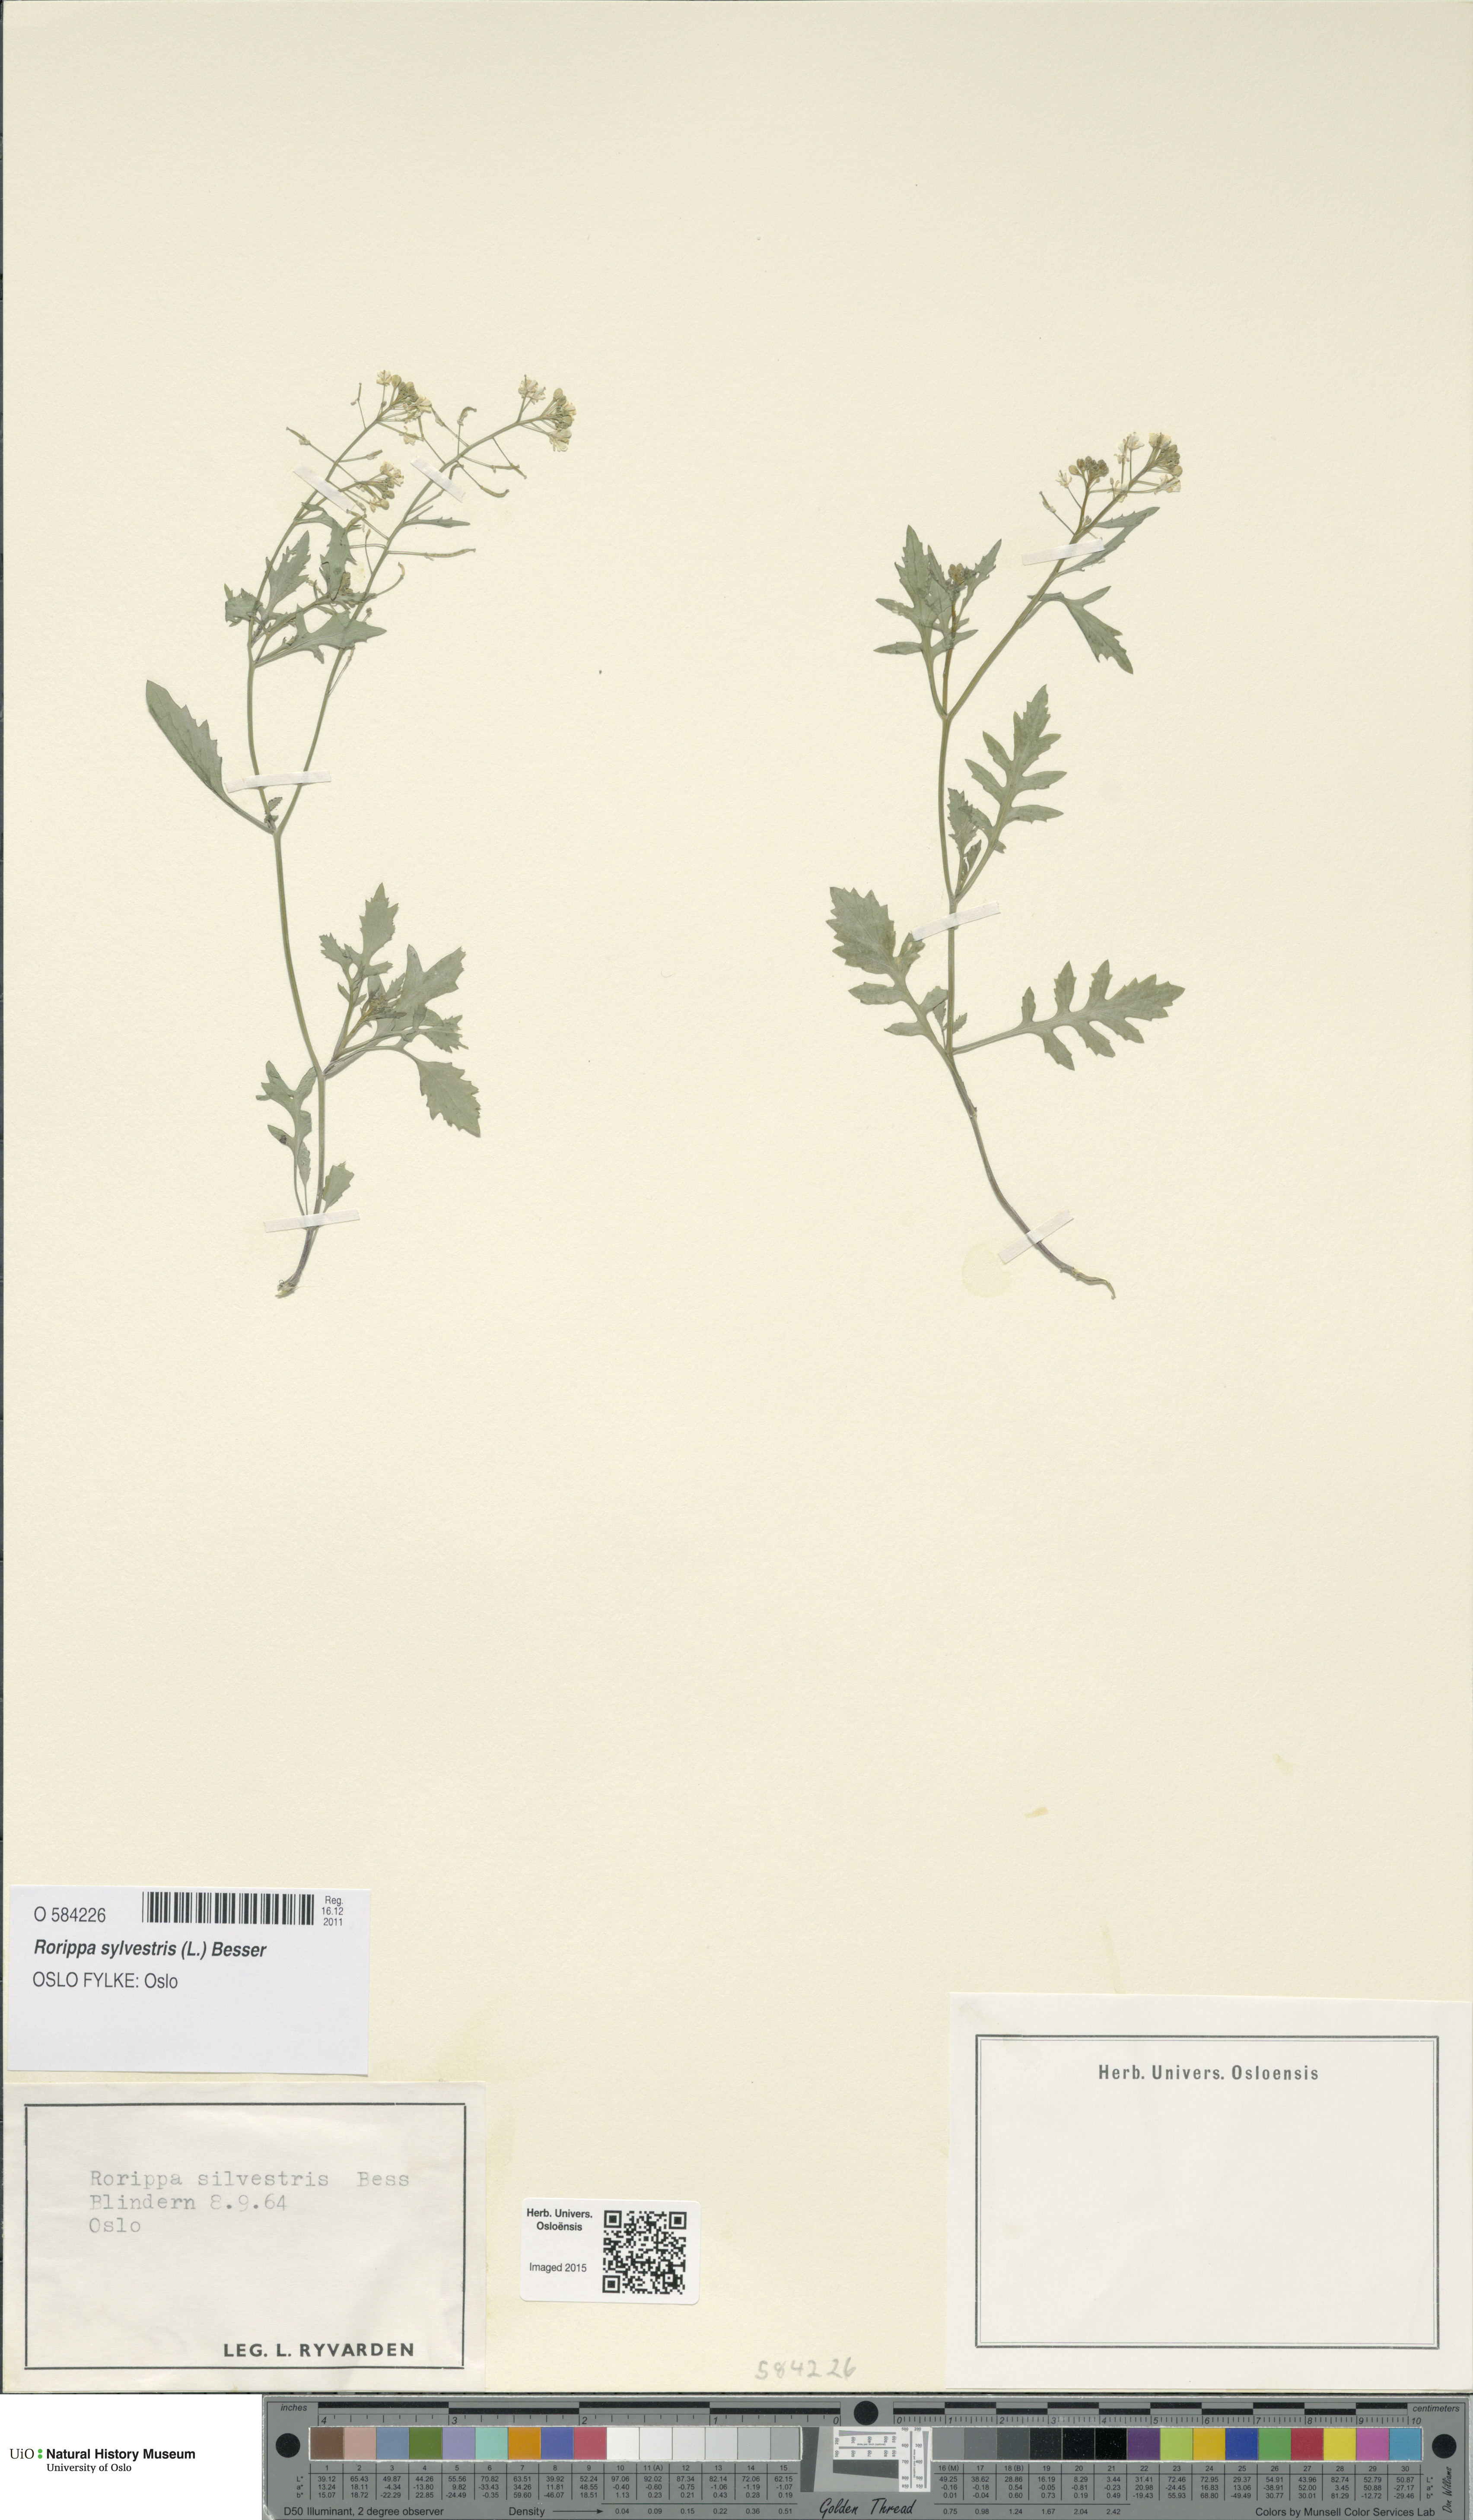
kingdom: Plantae
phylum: Tracheophyta
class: Magnoliopsida
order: Brassicales
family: Brassicaceae
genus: Rorippa
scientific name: Rorippa sylvestris
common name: Creeping yellowcress
